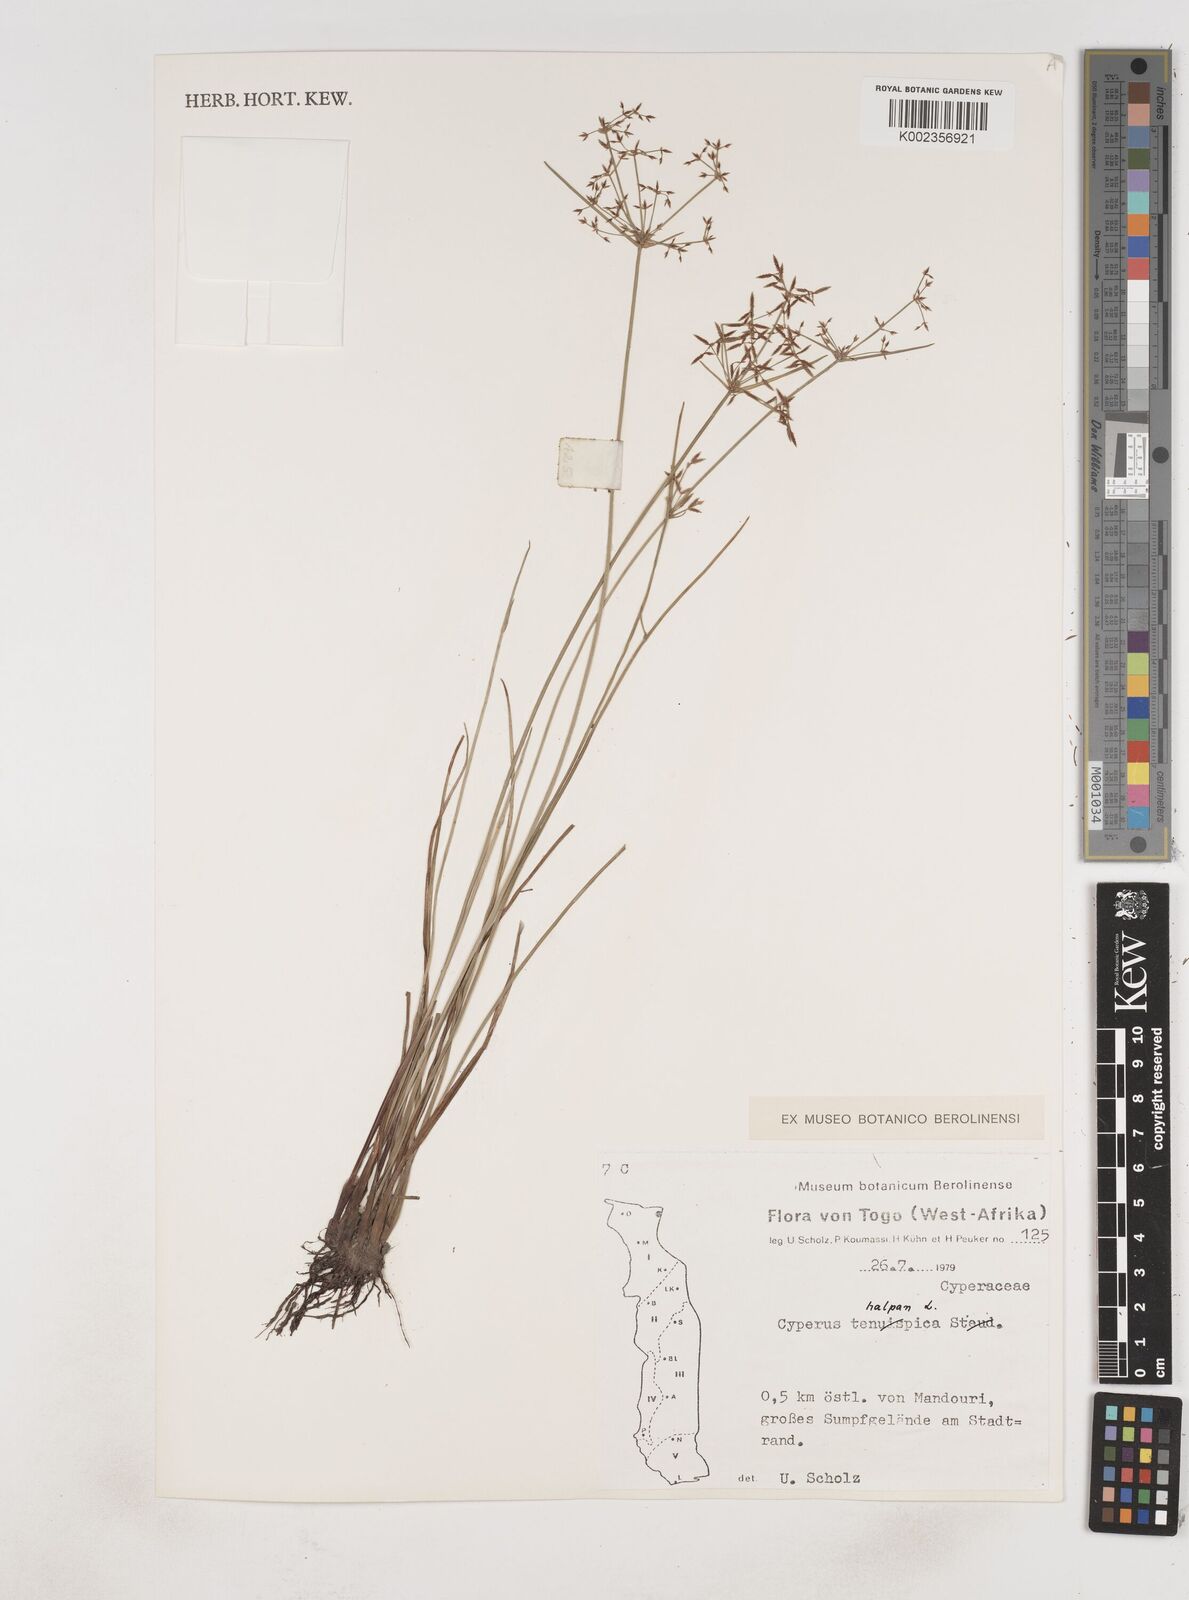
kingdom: Plantae
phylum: Tracheophyta
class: Liliopsida
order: Poales
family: Cyperaceae
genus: Cyperus
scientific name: Cyperus haspan
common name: Haspan flatsedge
